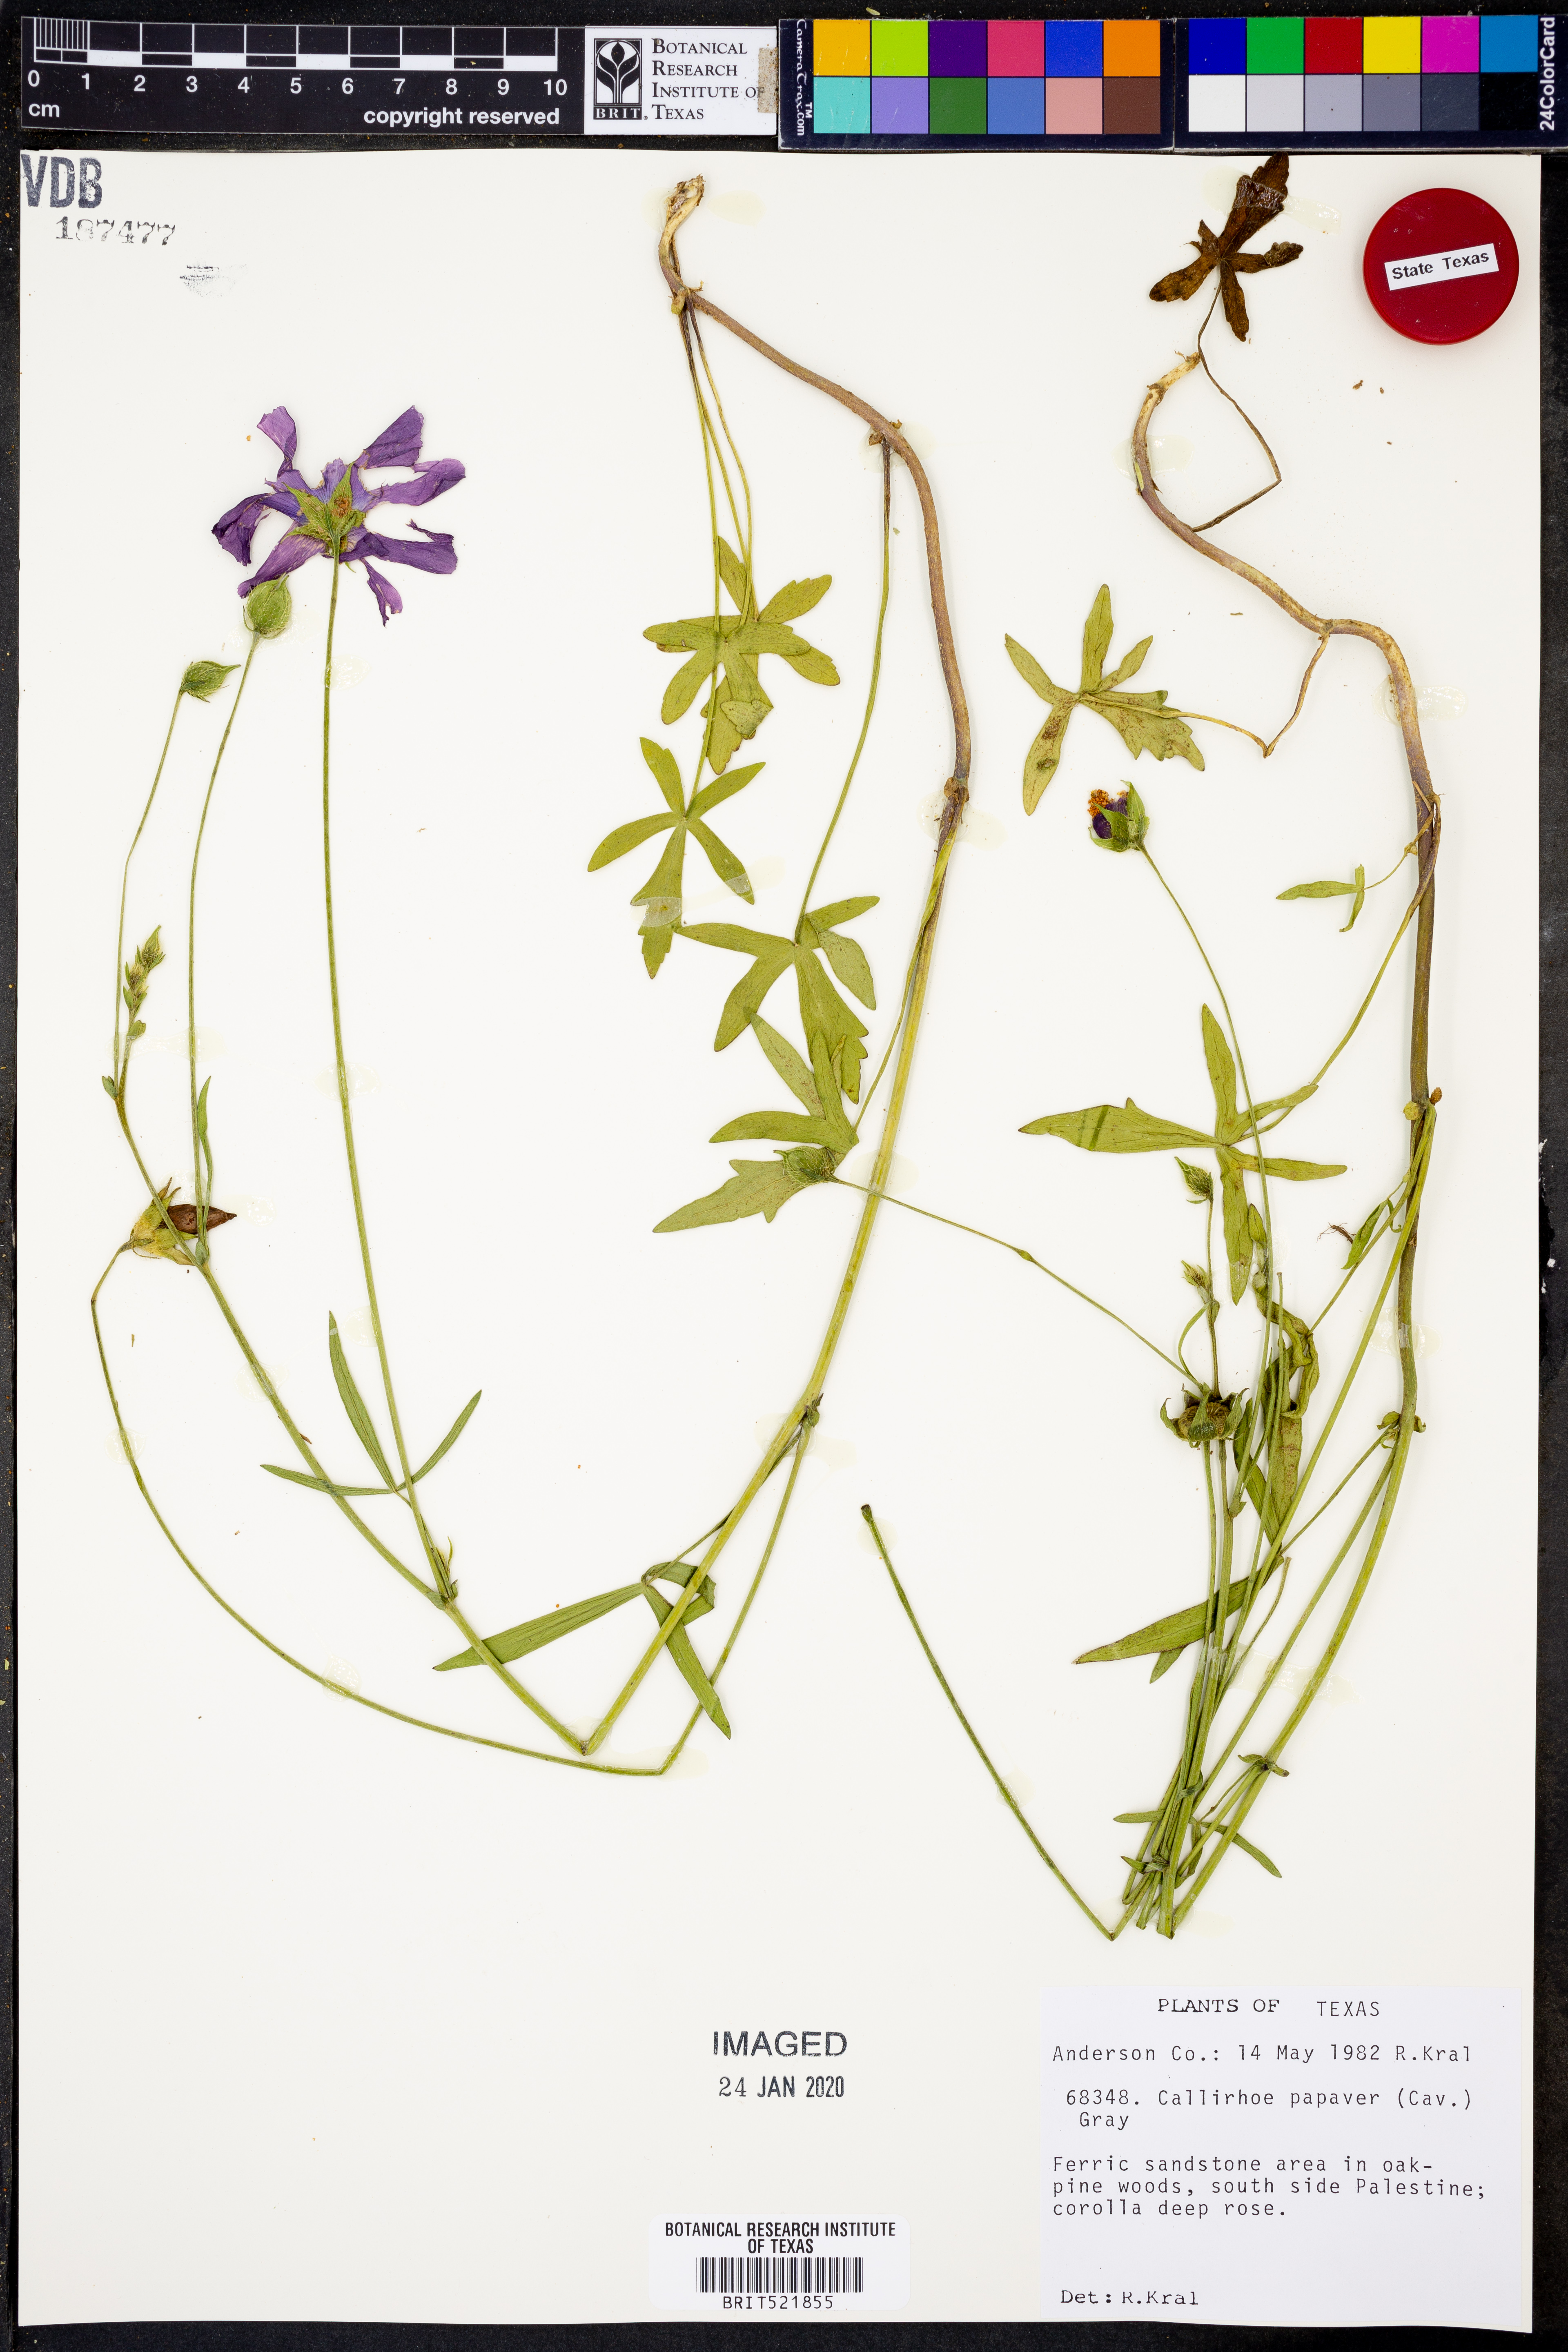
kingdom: Plantae
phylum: Tracheophyta
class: Magnoliopsida
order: Malvales
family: Malvaceae
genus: Callirhoe
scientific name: Callirhoe papaver
